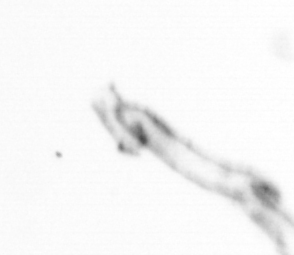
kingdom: Chromista
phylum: Ochrophyta
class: Bacillariophyceae
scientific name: Bacillariophyceae
